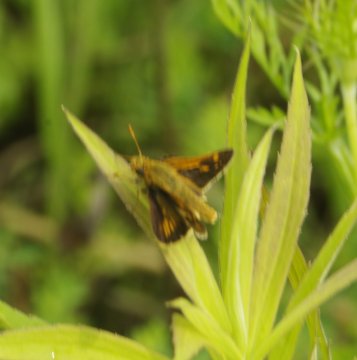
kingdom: Animalia
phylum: Arthropoda
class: Insecta
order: Lepidoptera
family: Hesperiidae
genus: Polites
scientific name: Polites
